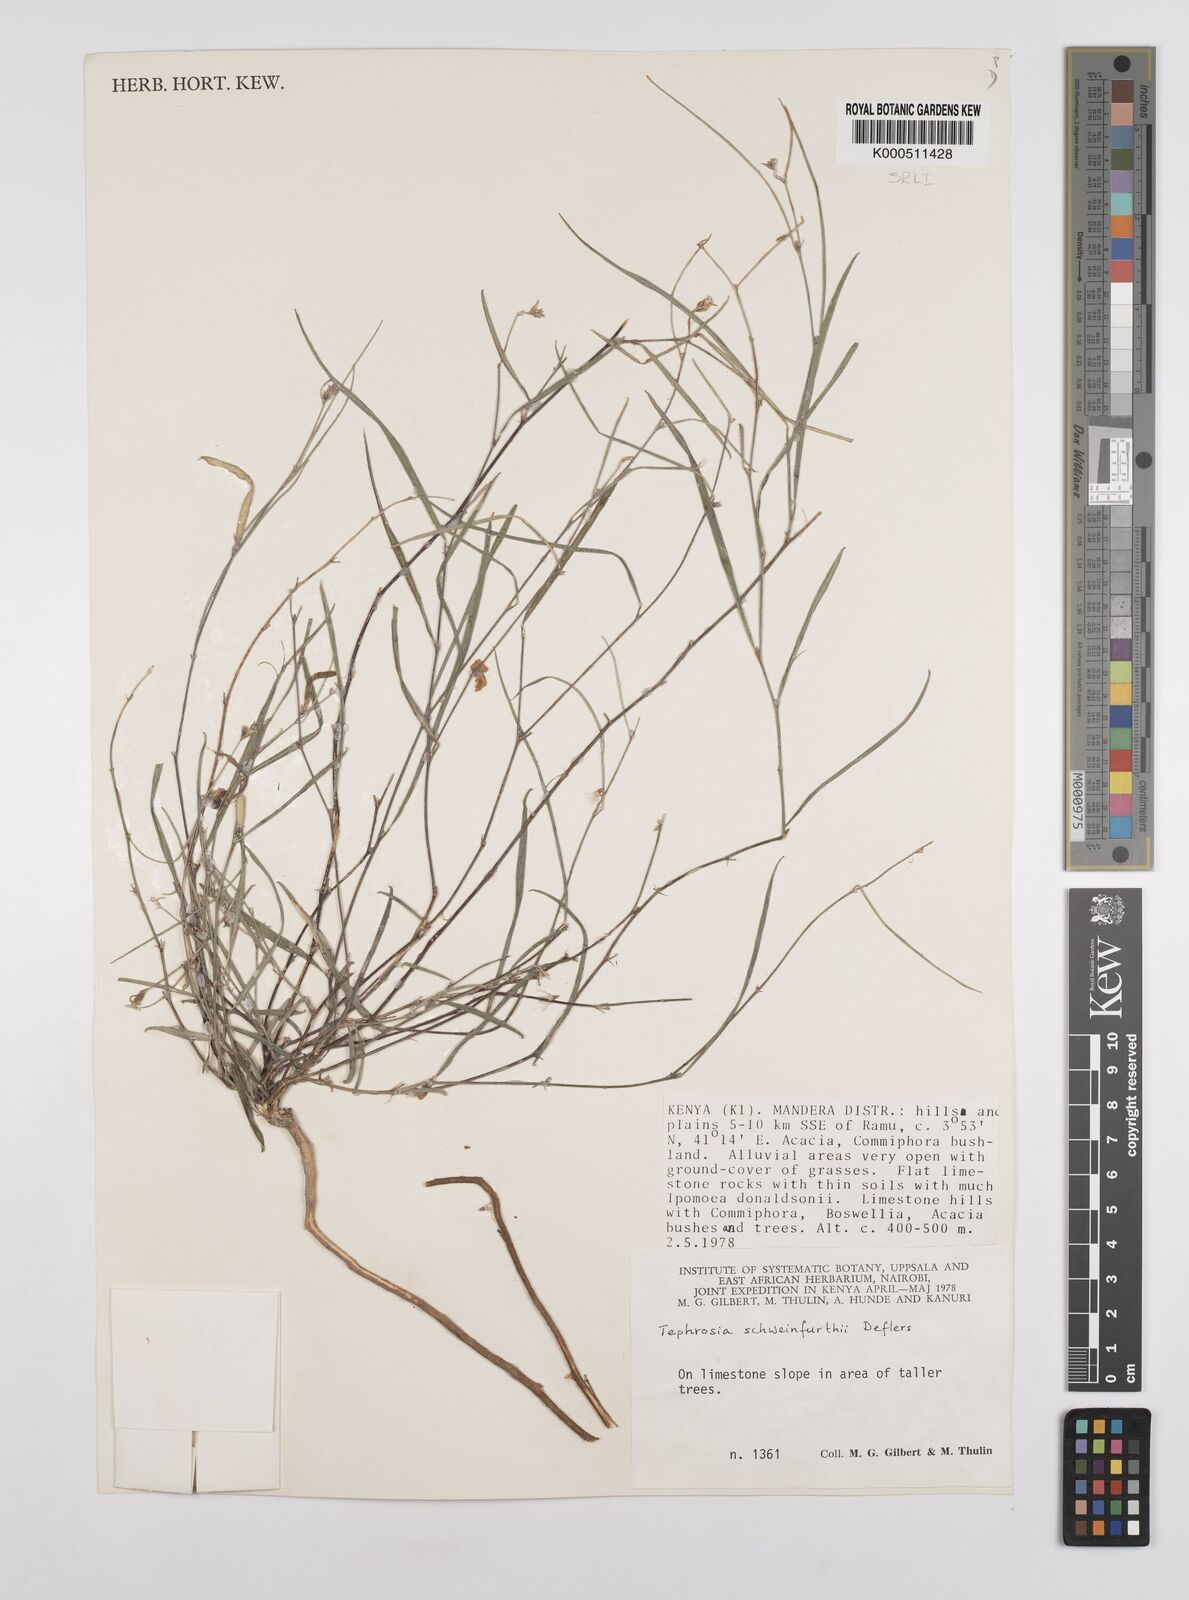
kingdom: Plantae
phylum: Tracheophyta
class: Magnoliopsida
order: Fabales
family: Fabaceae
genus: Tephrosia
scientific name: Tephrosia heterophylla
